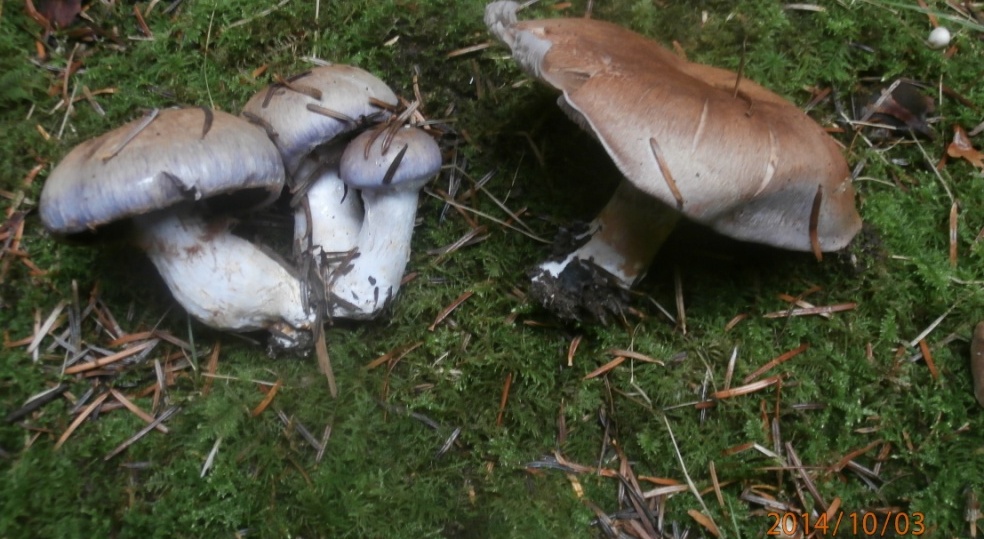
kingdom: Fungi
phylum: Basidiomycota
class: Agaricomycetes
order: Agaricales
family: Cortinariaceae
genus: Cortinarius
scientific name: Cortinarius largus
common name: violetrandet slørhat
